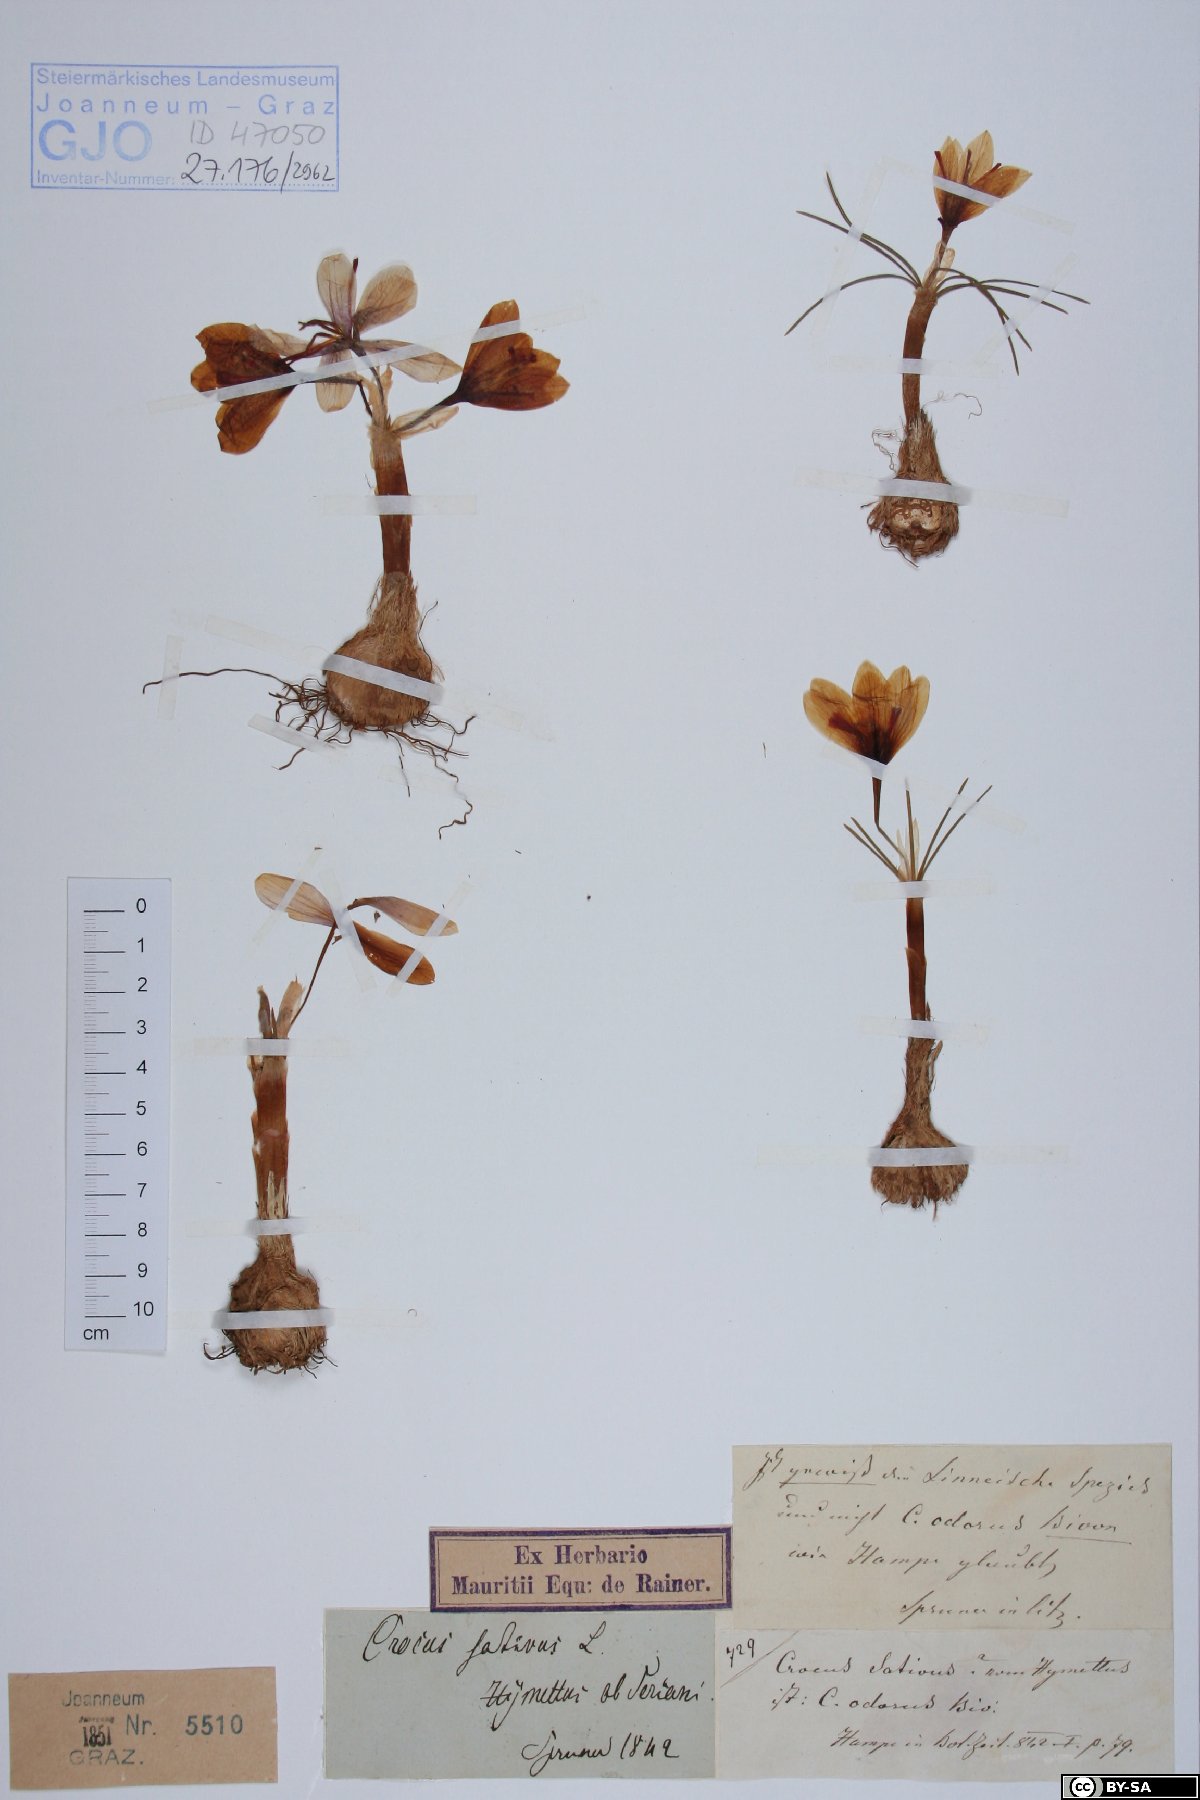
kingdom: Plantae
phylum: Tracheophyta
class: Liliopsida
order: Asparagales
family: Iridaceae
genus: Crocus
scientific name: Crocus sativus
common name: Saffron crocus
